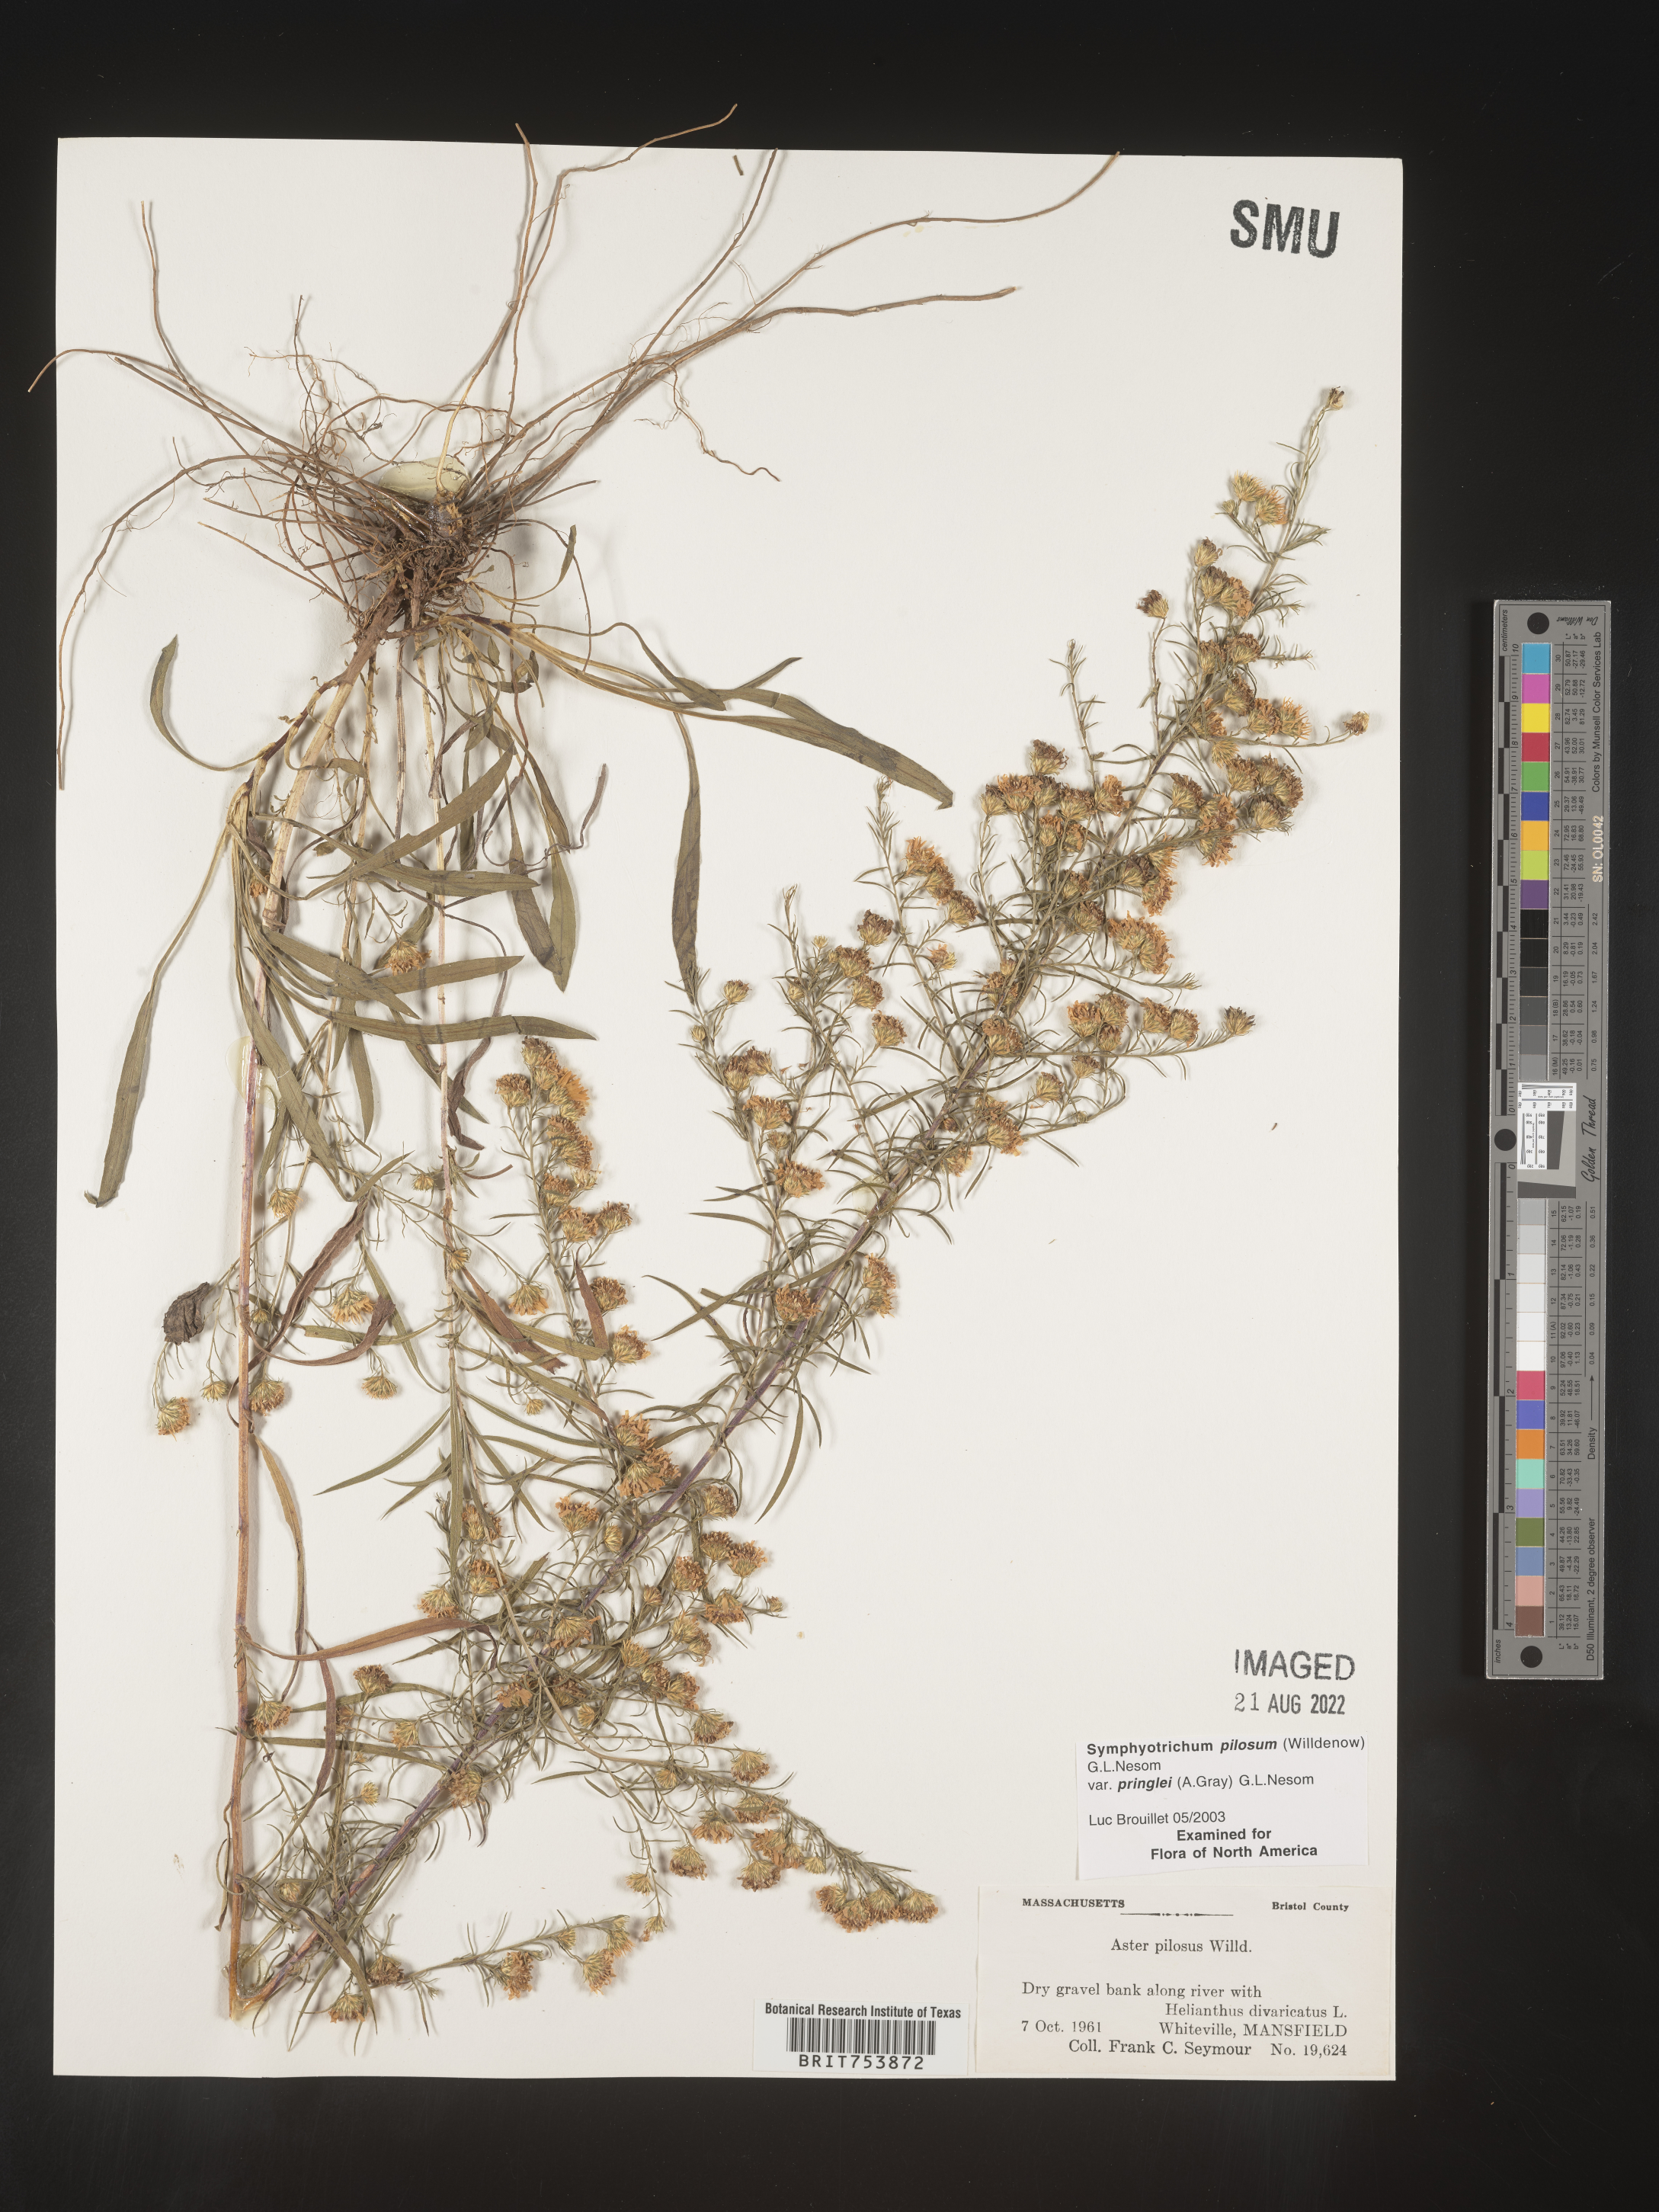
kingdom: Plantae
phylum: Tracheophyta
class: Magnoliopsida
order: Asterales
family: Asteraceae
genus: Symphyotrichum
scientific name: Symphyotrichum pilosum
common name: Awl aster
